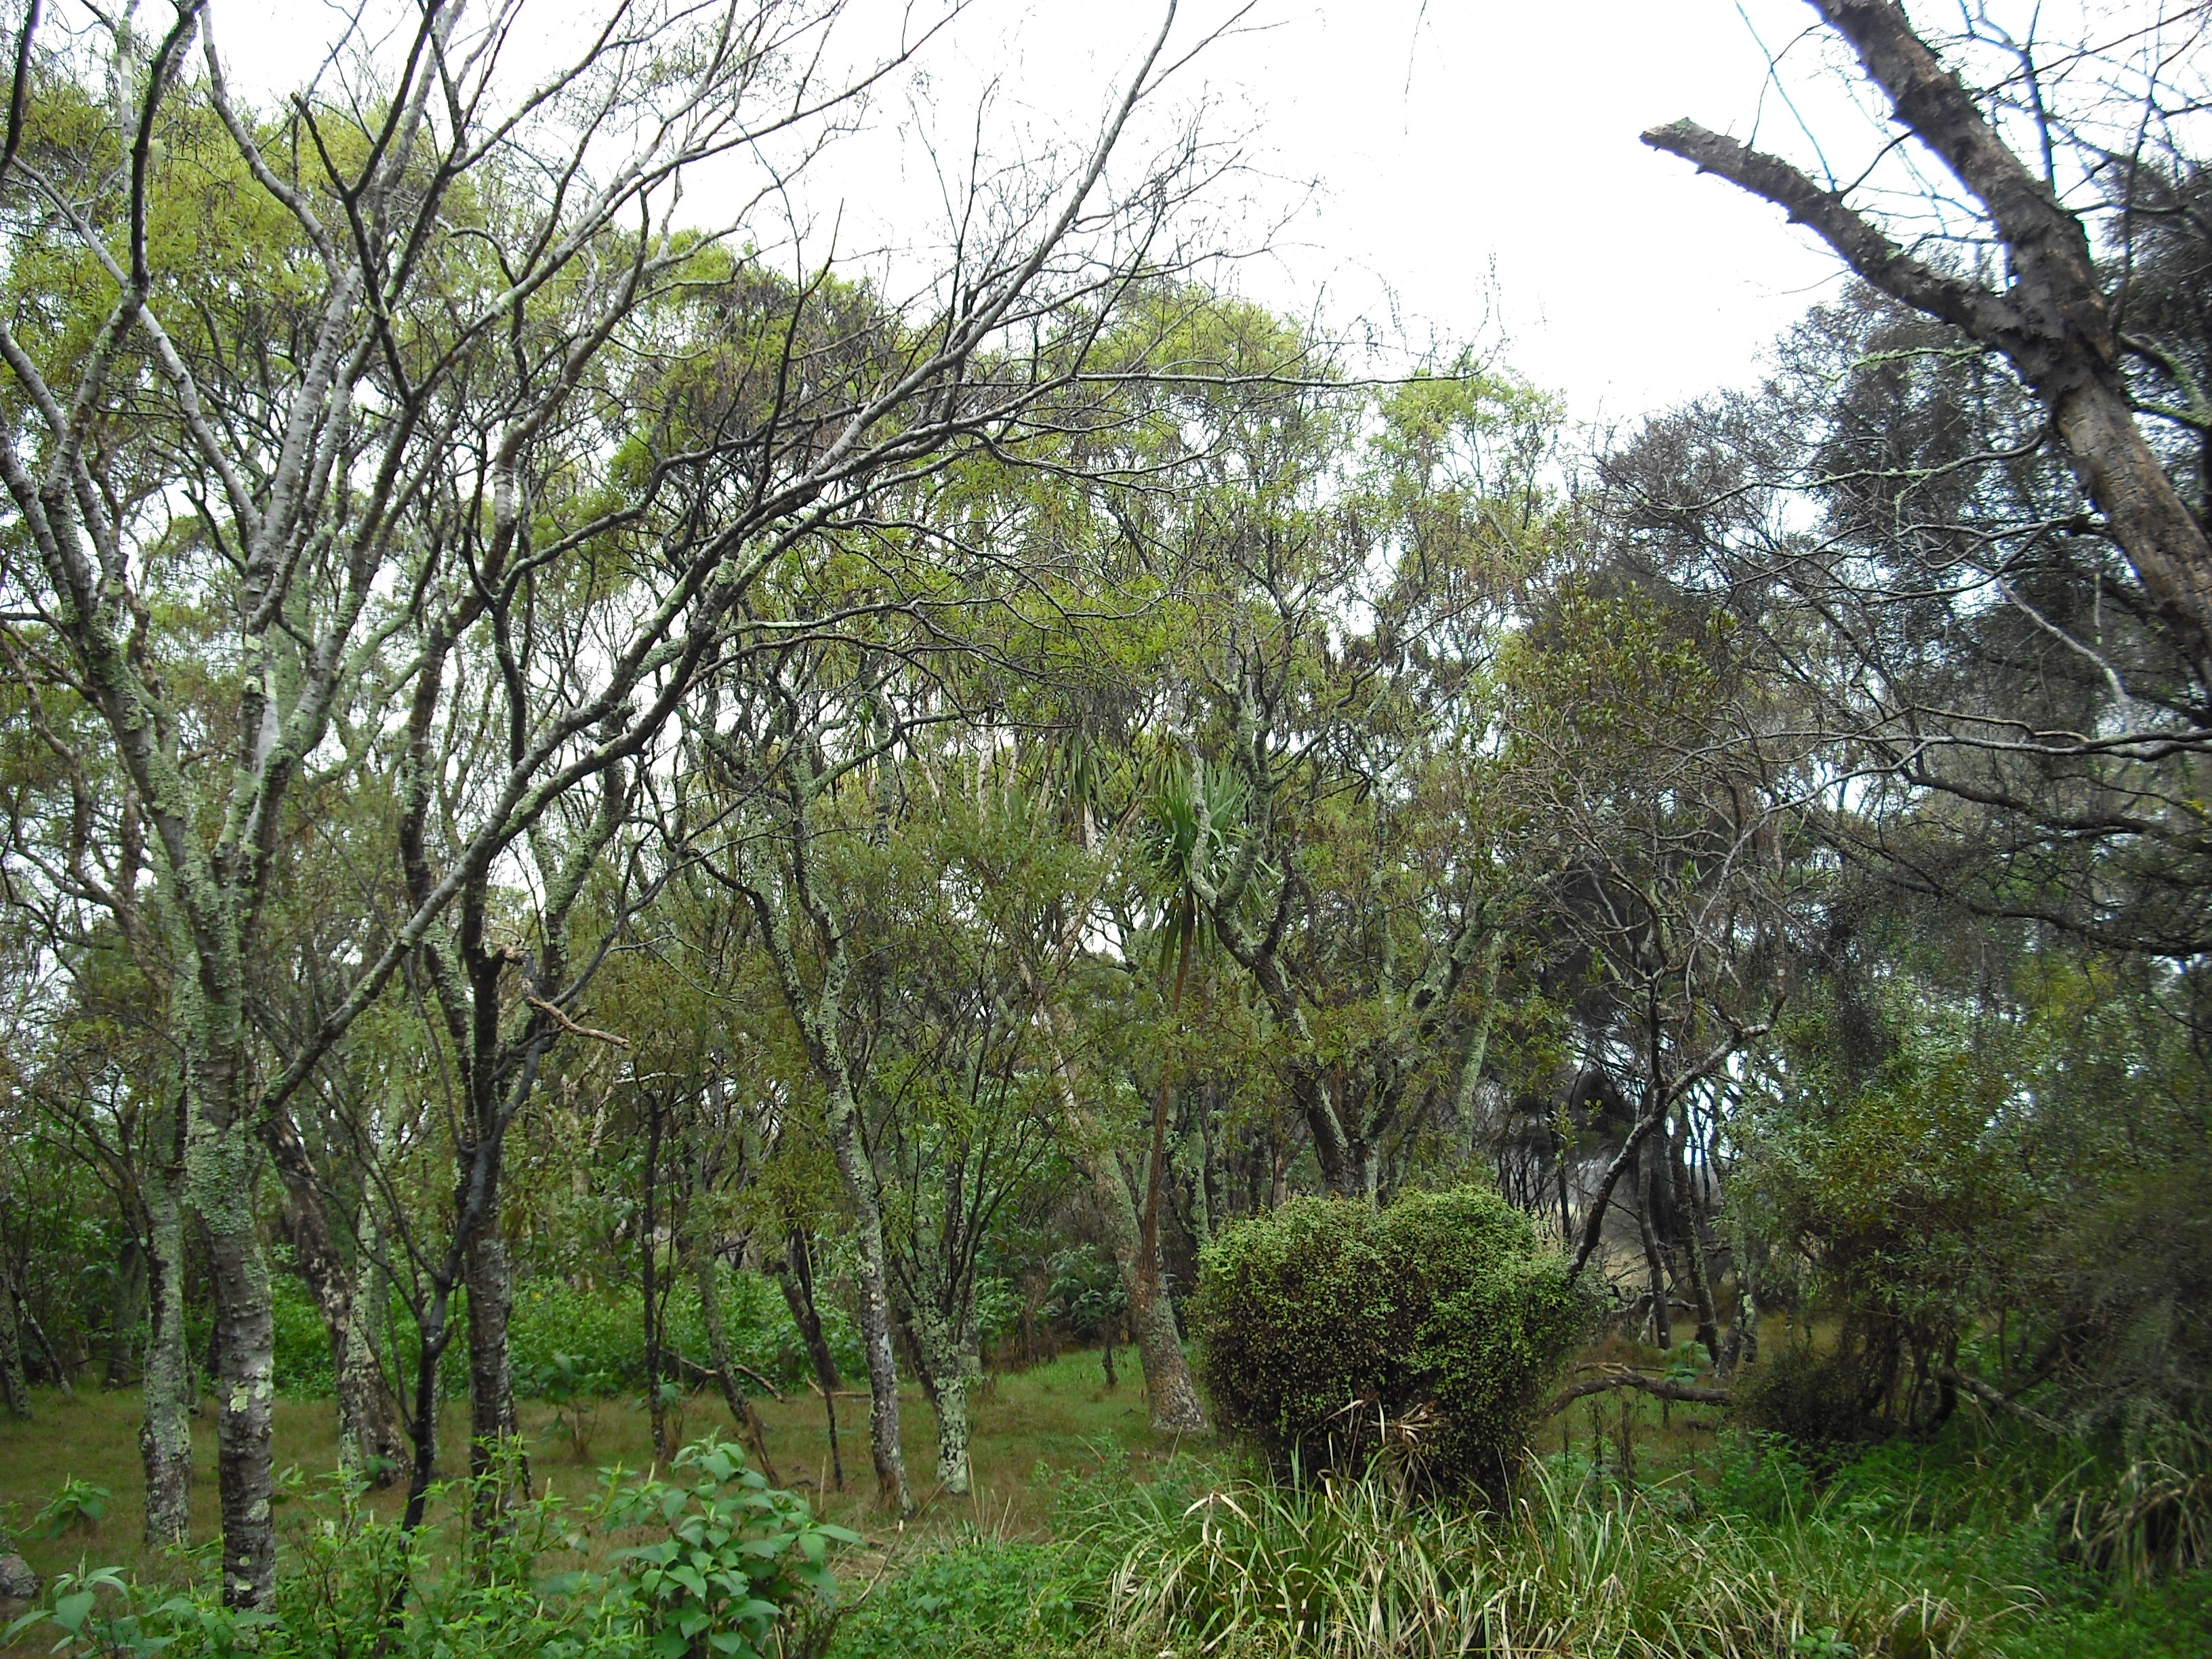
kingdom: Plantae
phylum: Tracheophyta
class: Magnoliopsida
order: Fabales
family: Fabaceae
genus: Sophora
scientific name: Sophora chathamica
